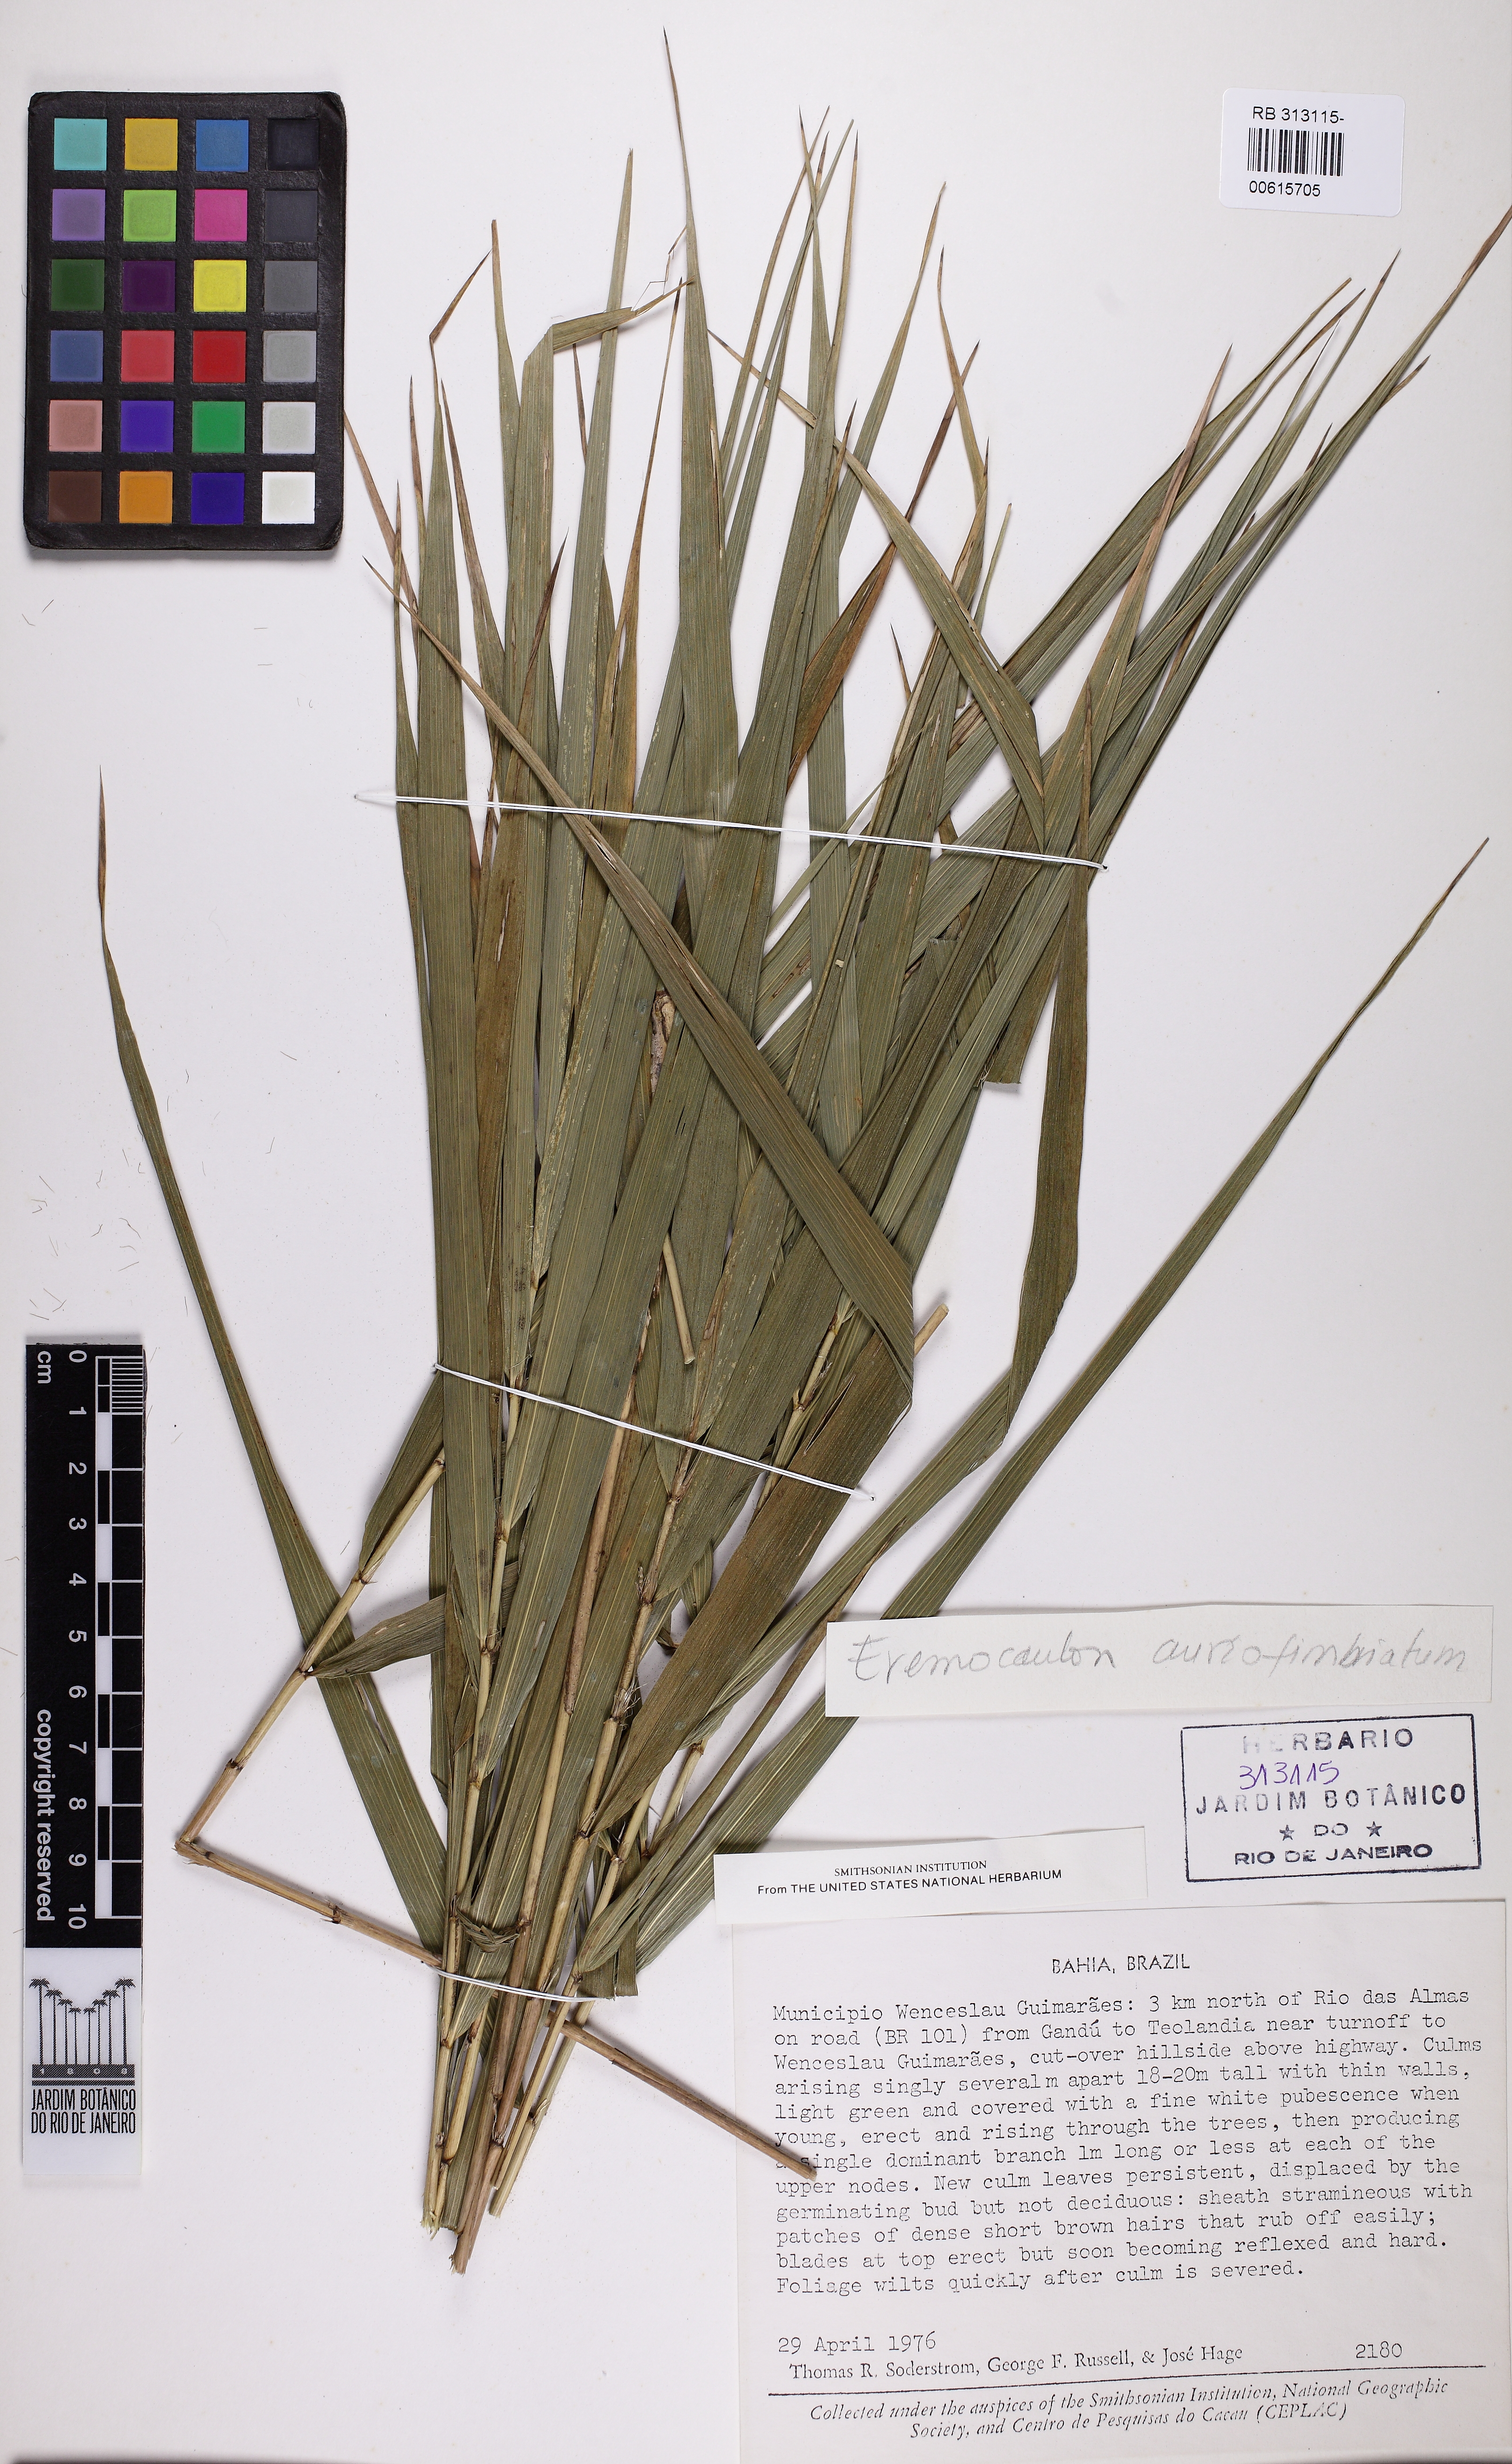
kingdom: Plantae
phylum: Tracheophyta
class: Liliopsida
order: Poales
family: Poaceae
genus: Eremocaulon
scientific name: Eremocaulon aureofimbriatum
